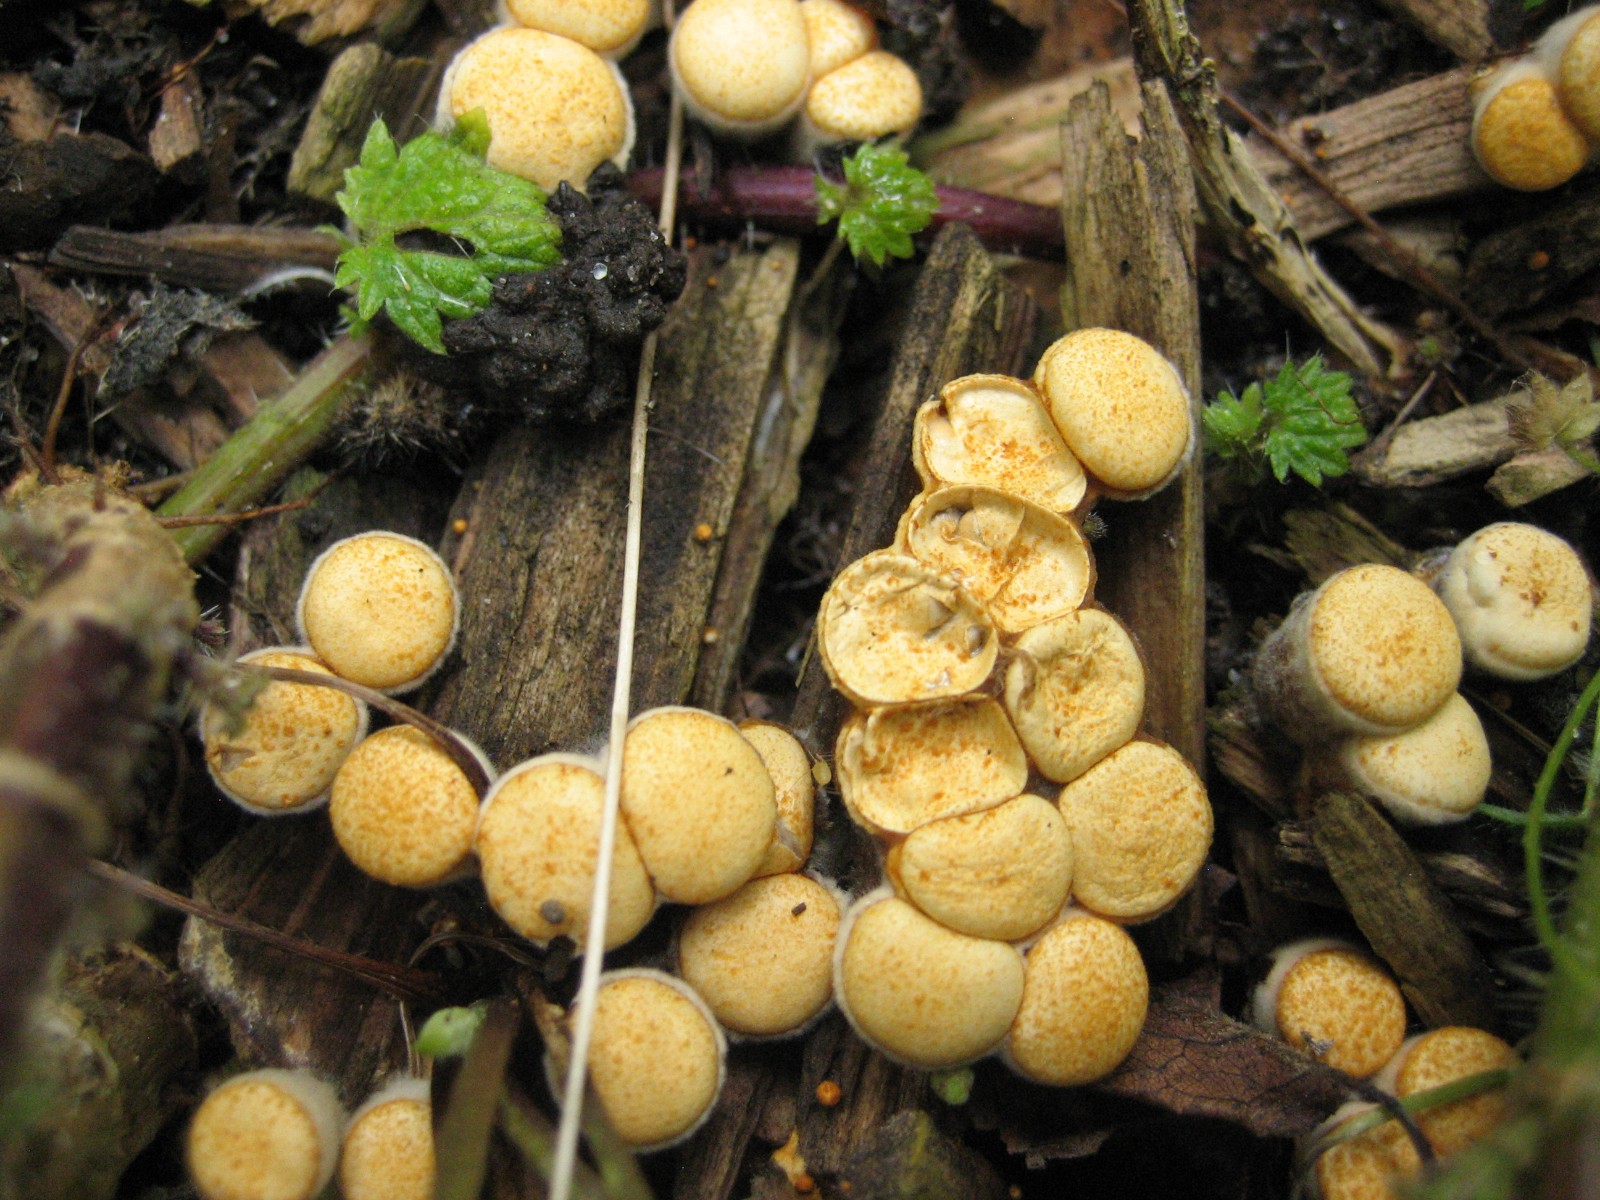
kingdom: Fungi
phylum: Basidiomycota
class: Agaricomycetes
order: Agaricales
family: Nidulariaceae
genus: Crucibulum
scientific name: Crucibulum crucibuliforme
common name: krukkesvamp
